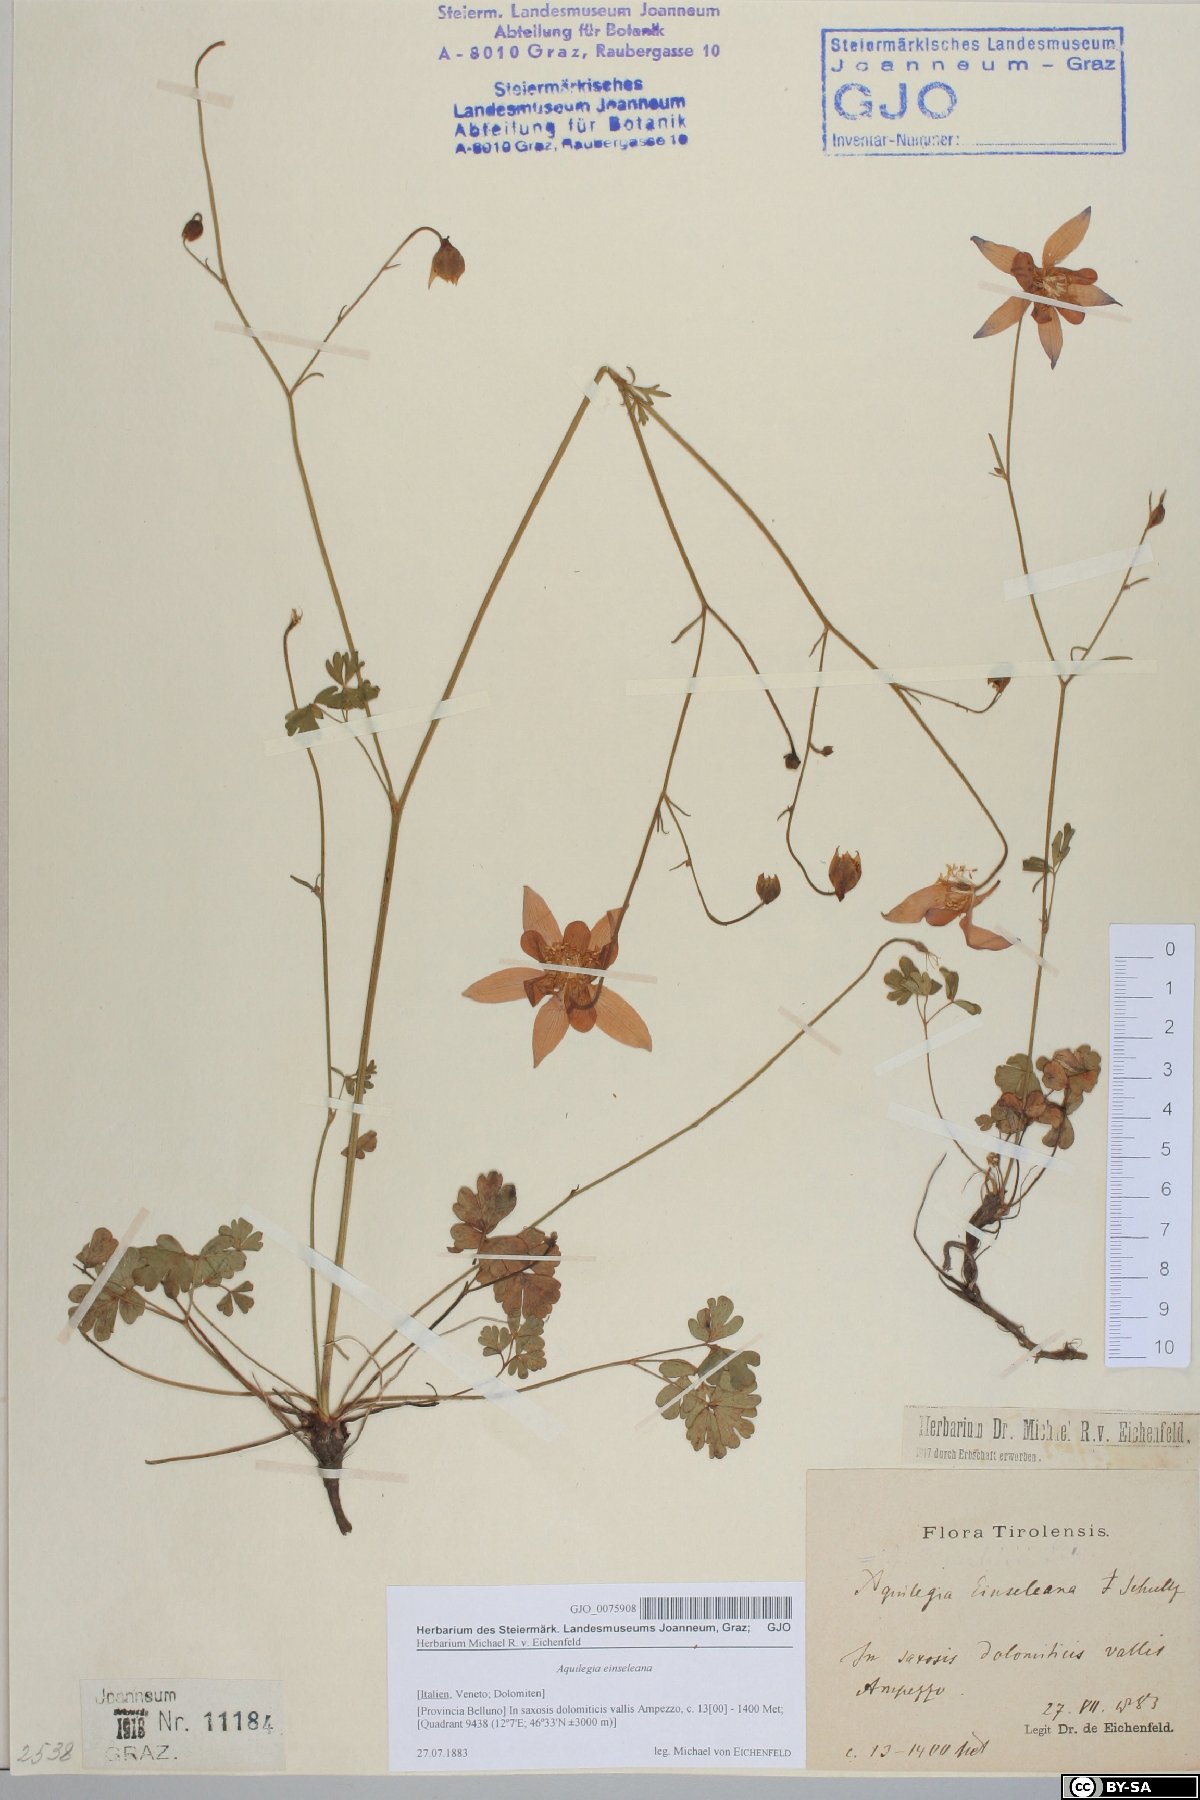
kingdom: Plantae
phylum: Tracheophyta
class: Magnoliopsida
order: Ranunculales
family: Ranunculaceae
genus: Aquilegia
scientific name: Aquilegia einseleana
